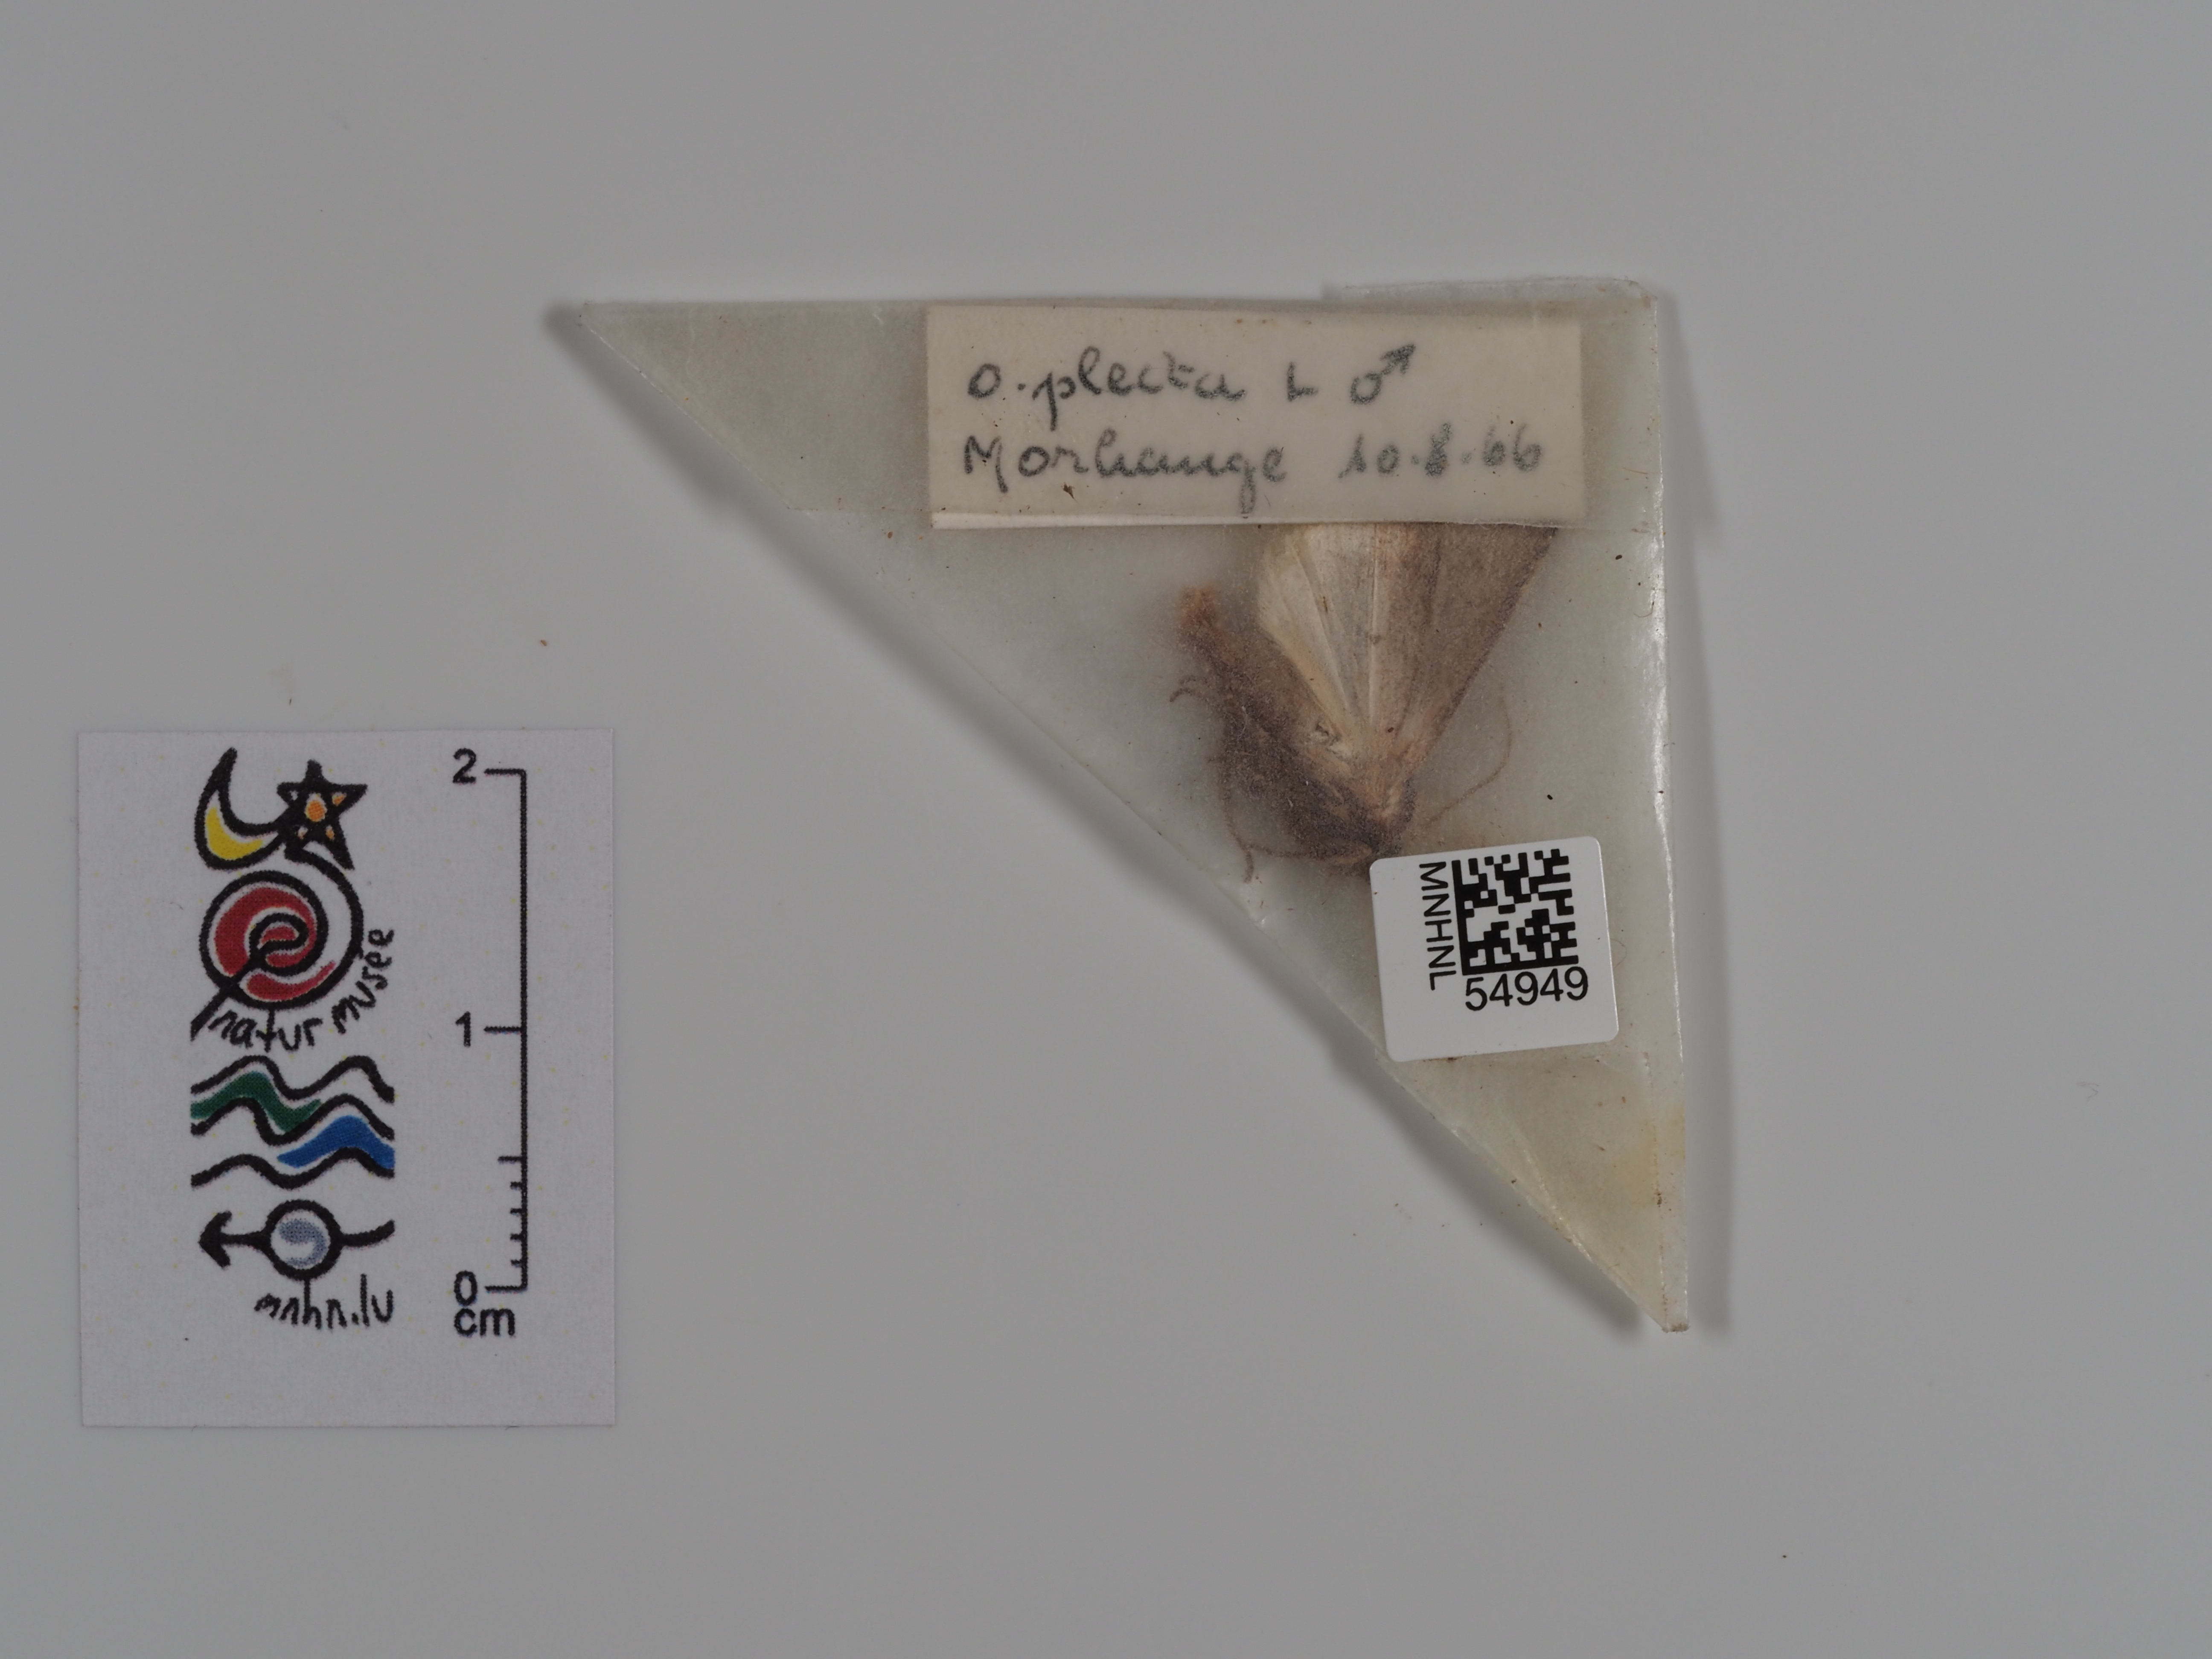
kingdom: Animalia
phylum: Arthropoda
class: Insecta
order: Lepidoptera
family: Noctuidae
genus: Ochropleura
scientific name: Ochropleura plecta
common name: Flame shoulder
